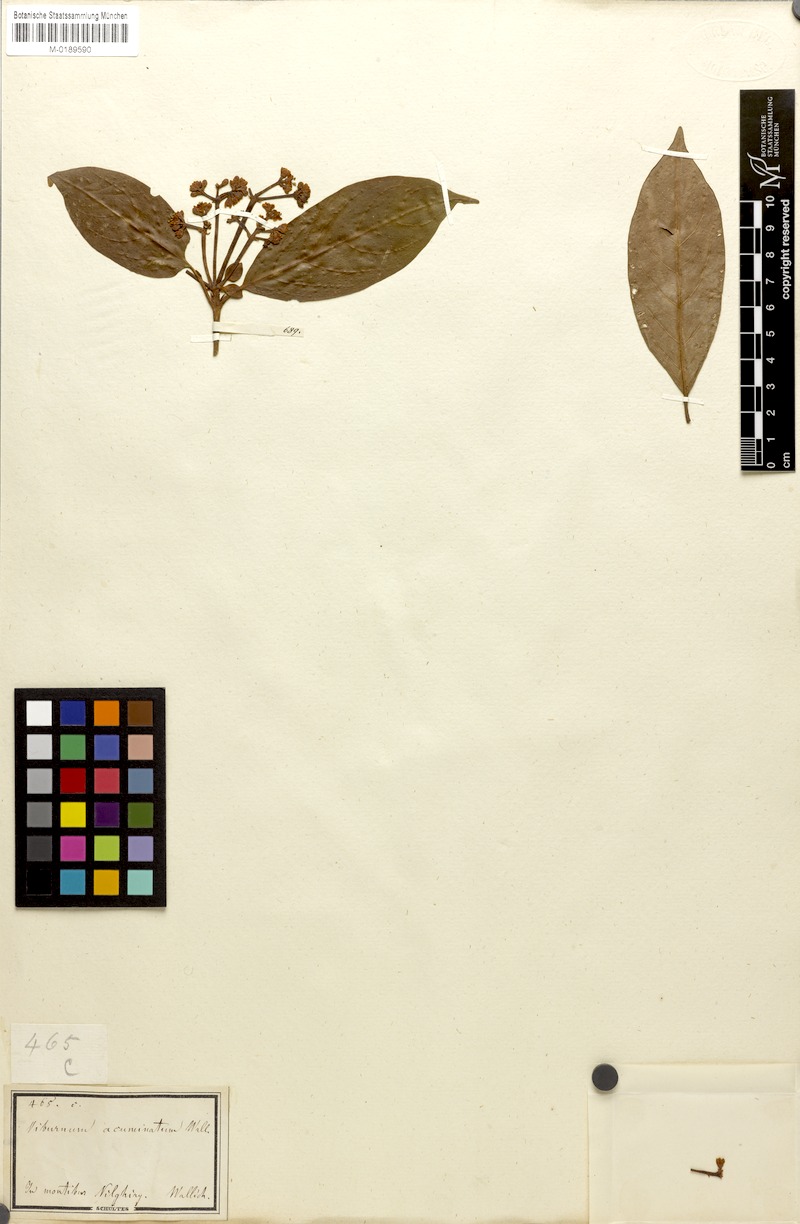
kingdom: Plantae
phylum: Tracheophyta
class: Magnoliopsida
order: Dipsacales
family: Viburnaceae
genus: Viburnum
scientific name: Viburnum punctatum
